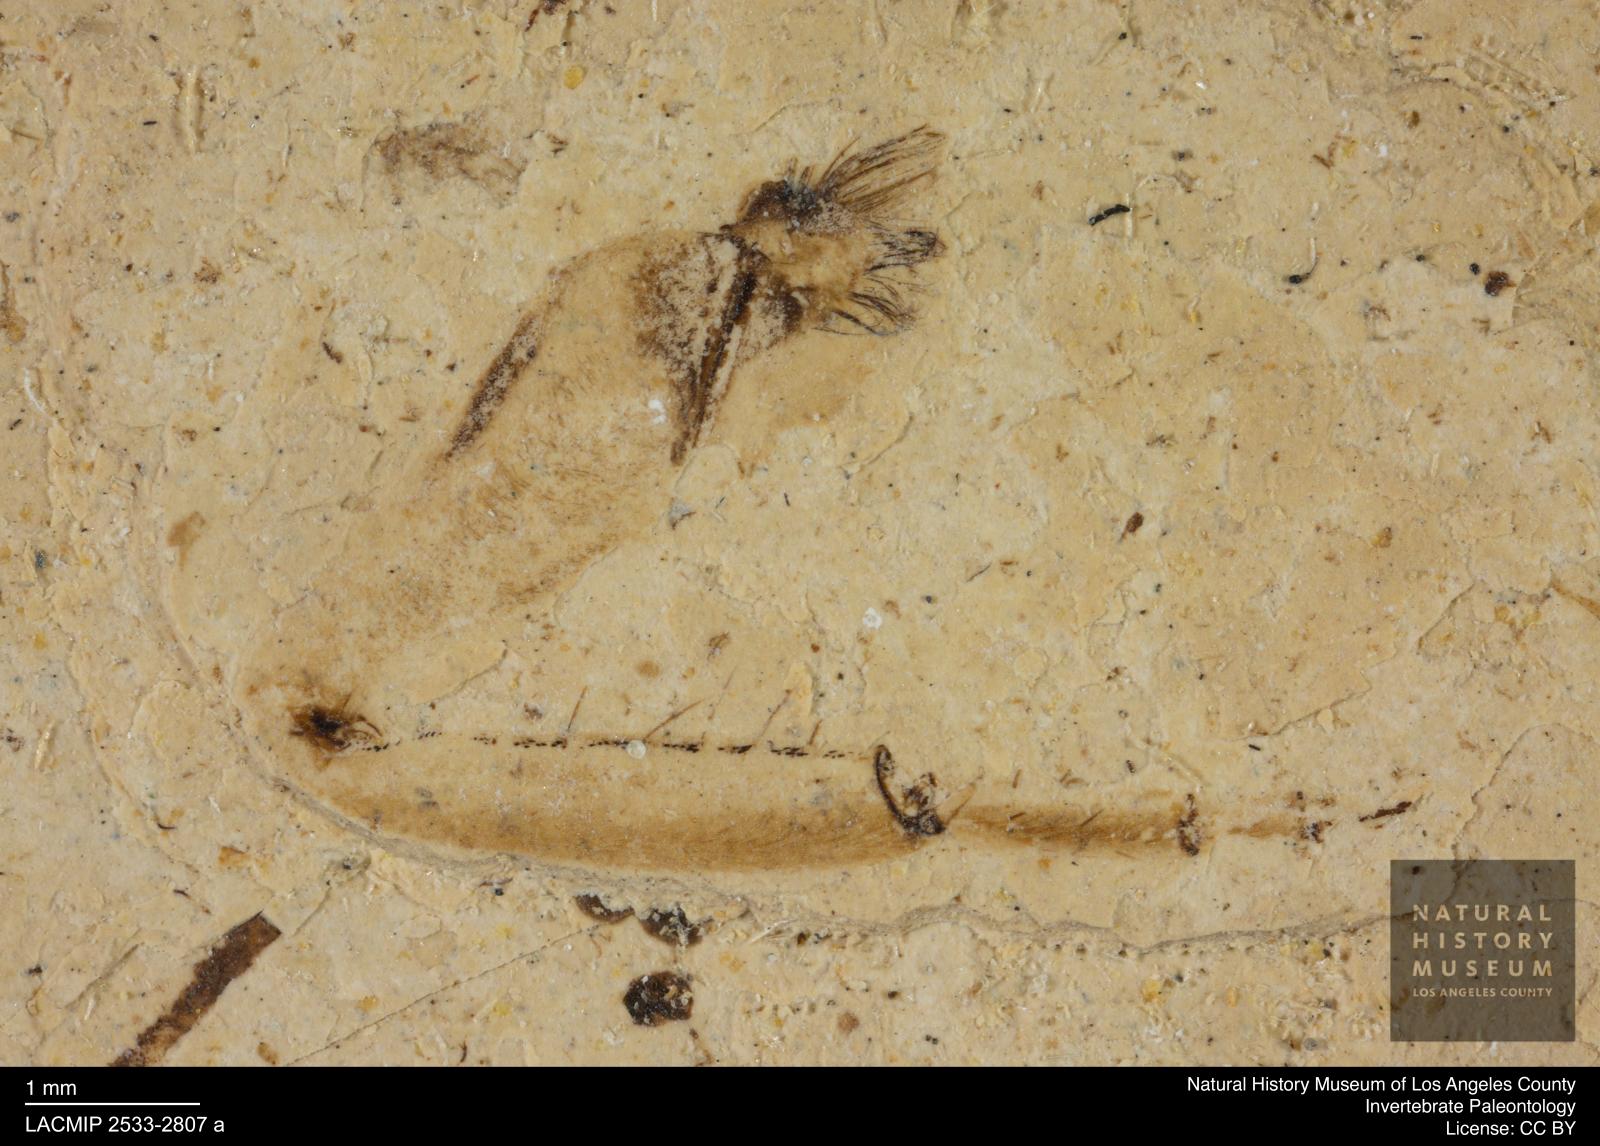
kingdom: Animalia
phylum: Arthropoda
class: Insecta
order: Ephemeroptera
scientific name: Ephemeroptera
